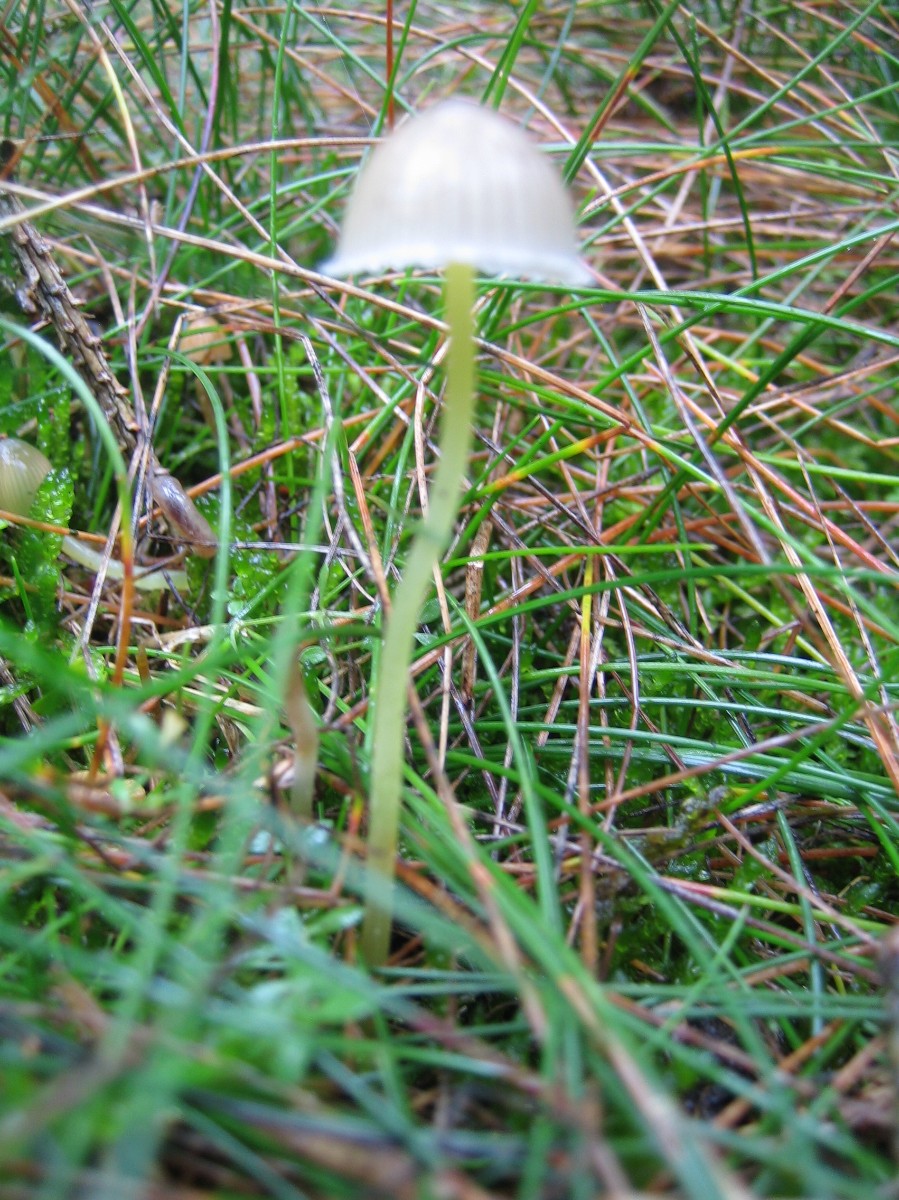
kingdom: Fungi
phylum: Basidiomycota
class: Agaricomycetes
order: Agaricales
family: Mycenaceae
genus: Mycena
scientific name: Mycena epipterygia
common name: gulstokket huesvamp
